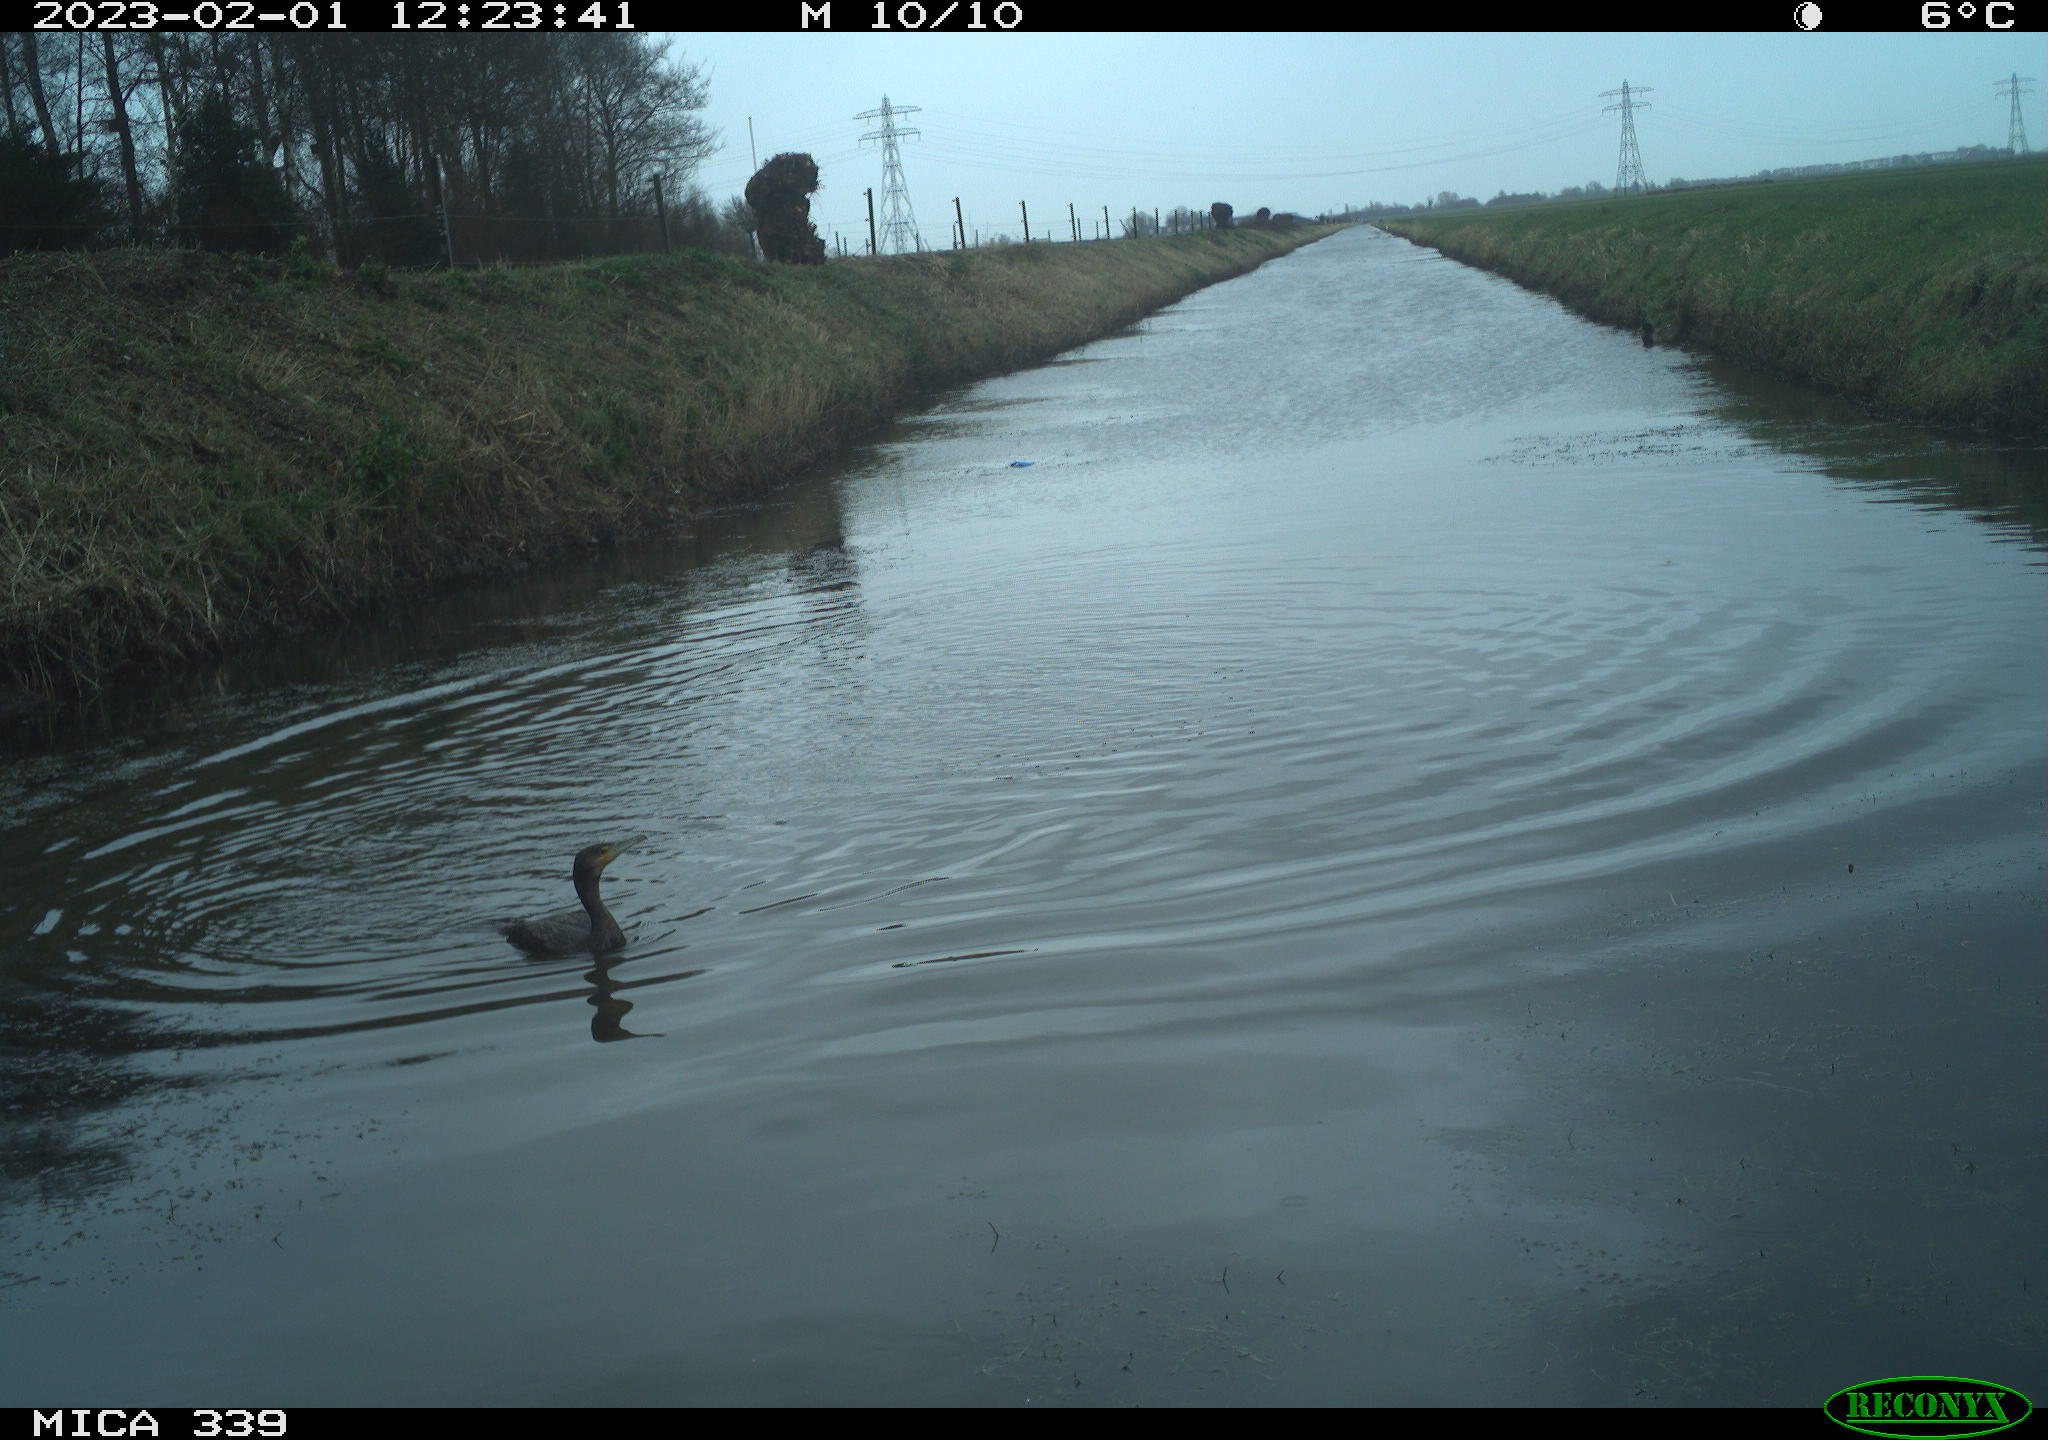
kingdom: Animalia
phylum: Chordata
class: Aves
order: Suliformes
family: Phalacrocoracidae
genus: Phalacrocorax
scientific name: Phalacrocorax carbo
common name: Great cormorant
